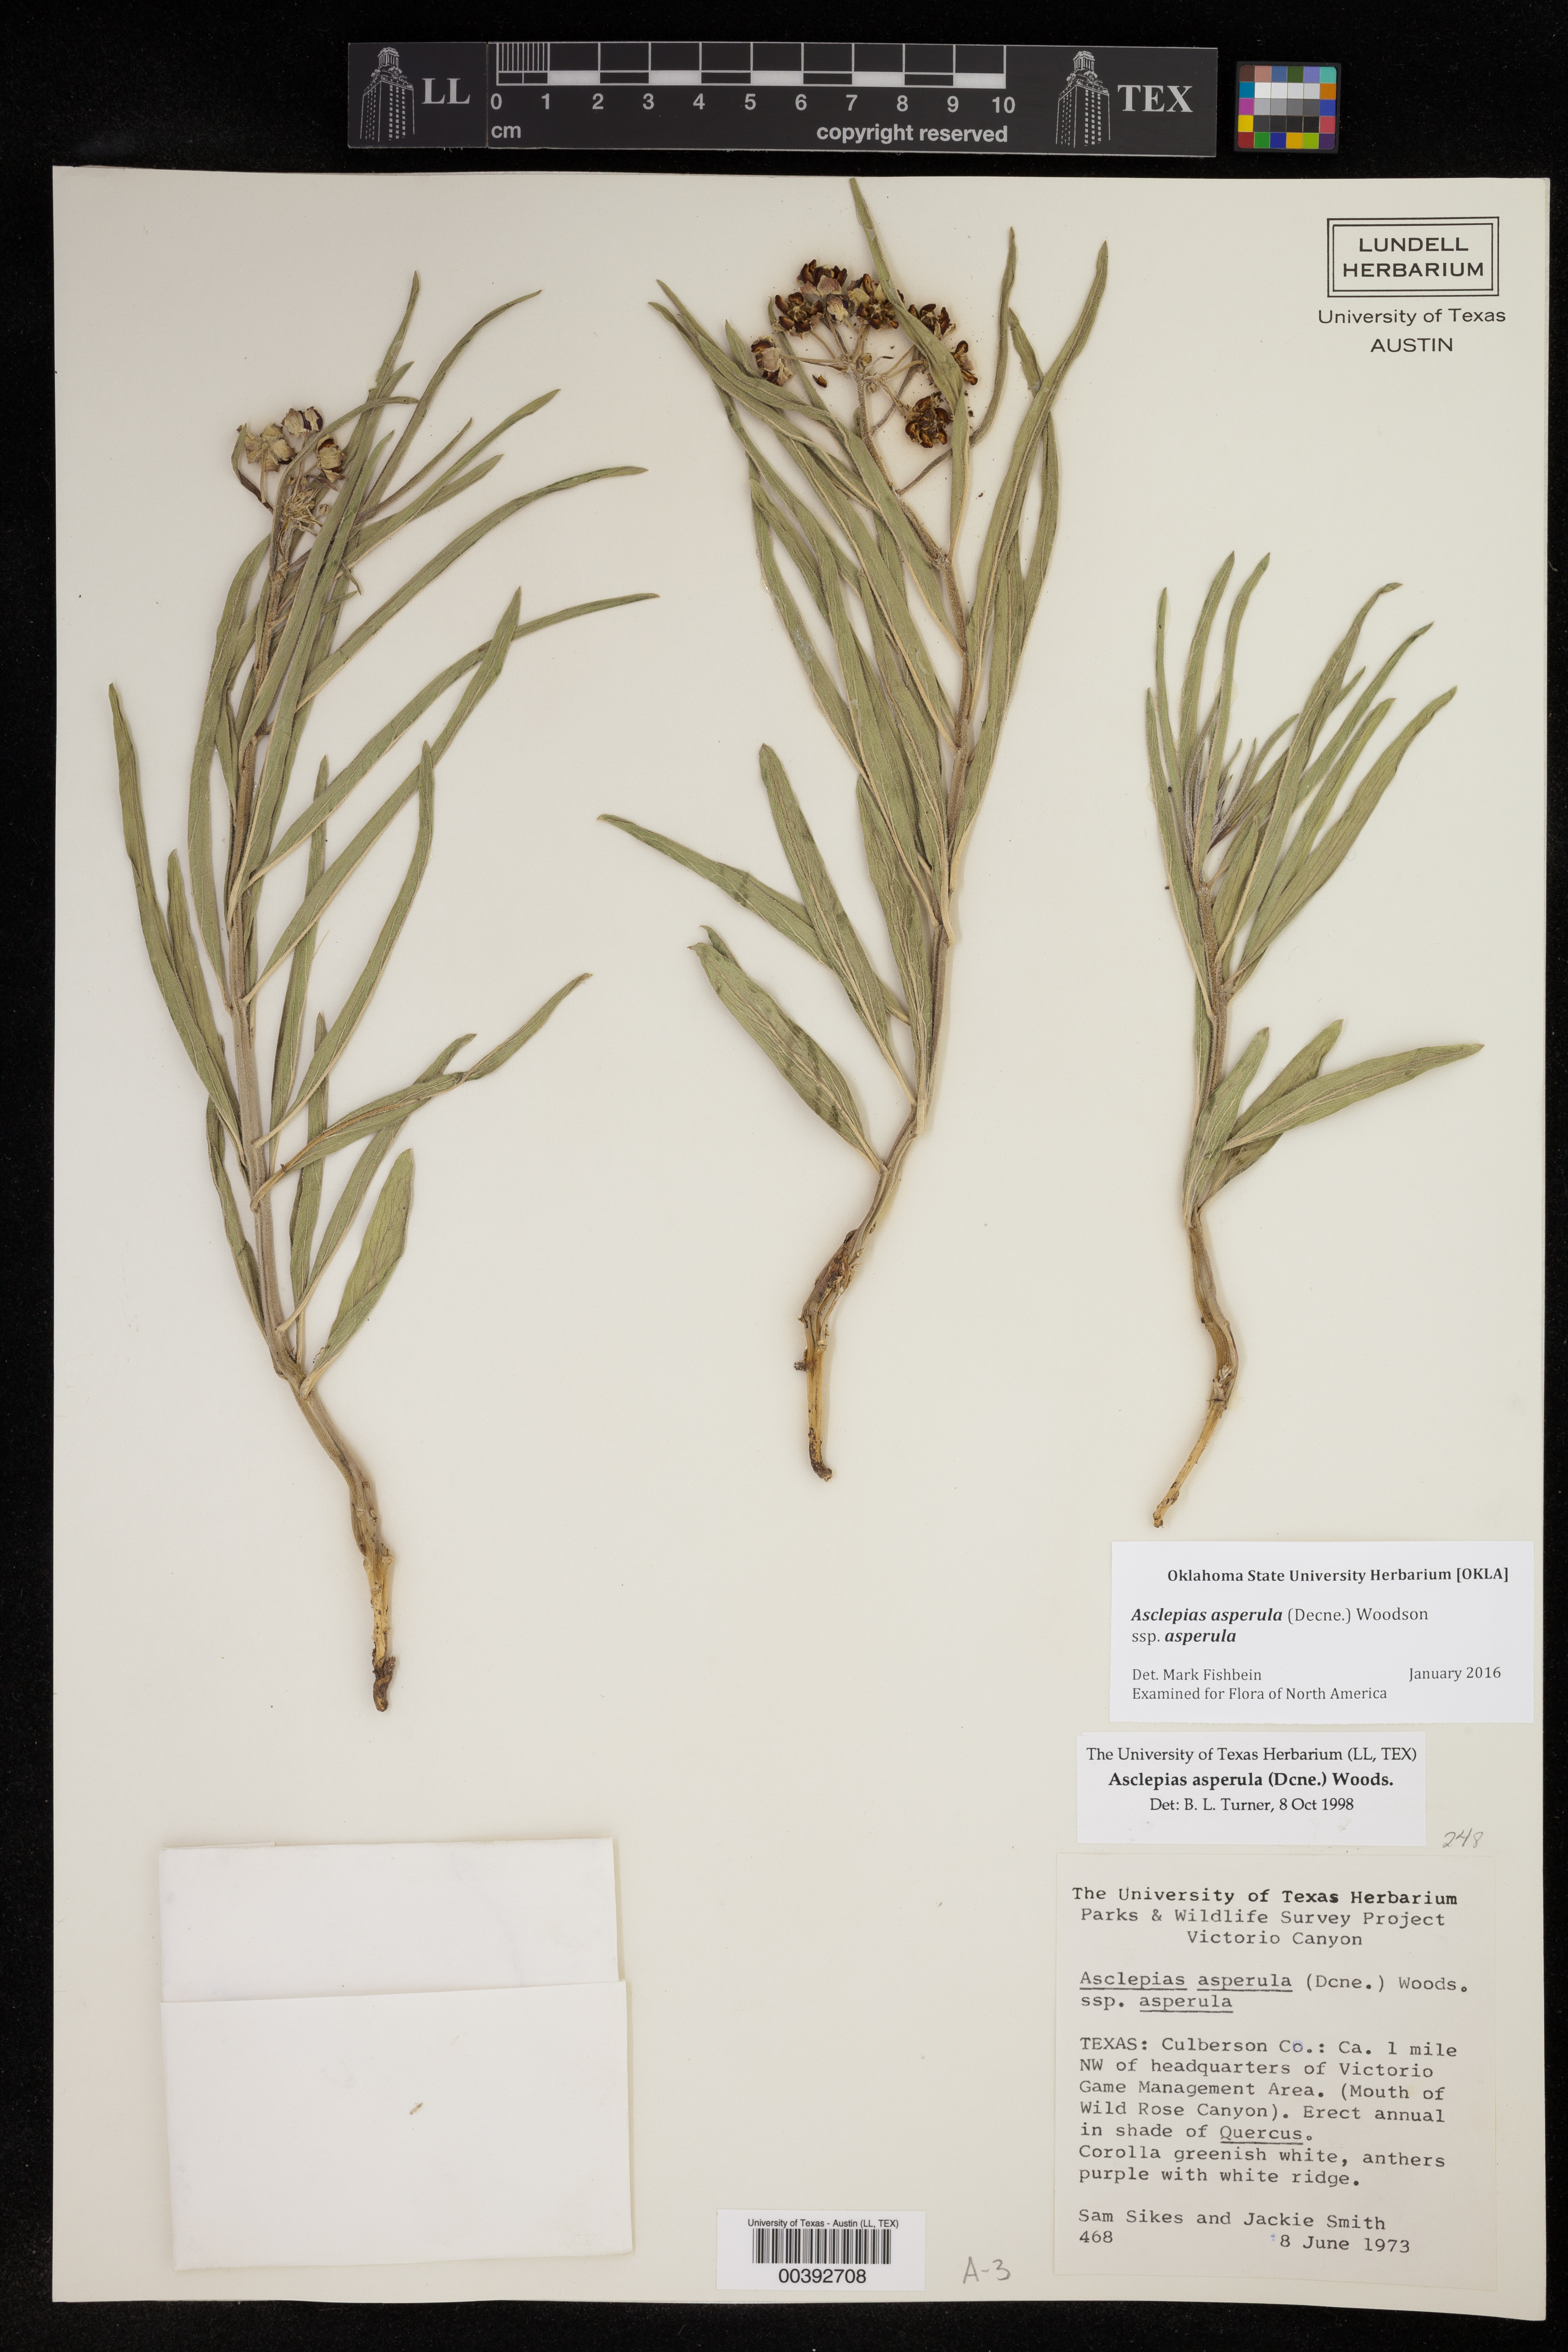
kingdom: Plantae
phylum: Tracheophyta
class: Magnoliopsida
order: Gentianales
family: Apocynaceae
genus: Asclepias
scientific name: Asclepias asperula
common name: Antelope horns
